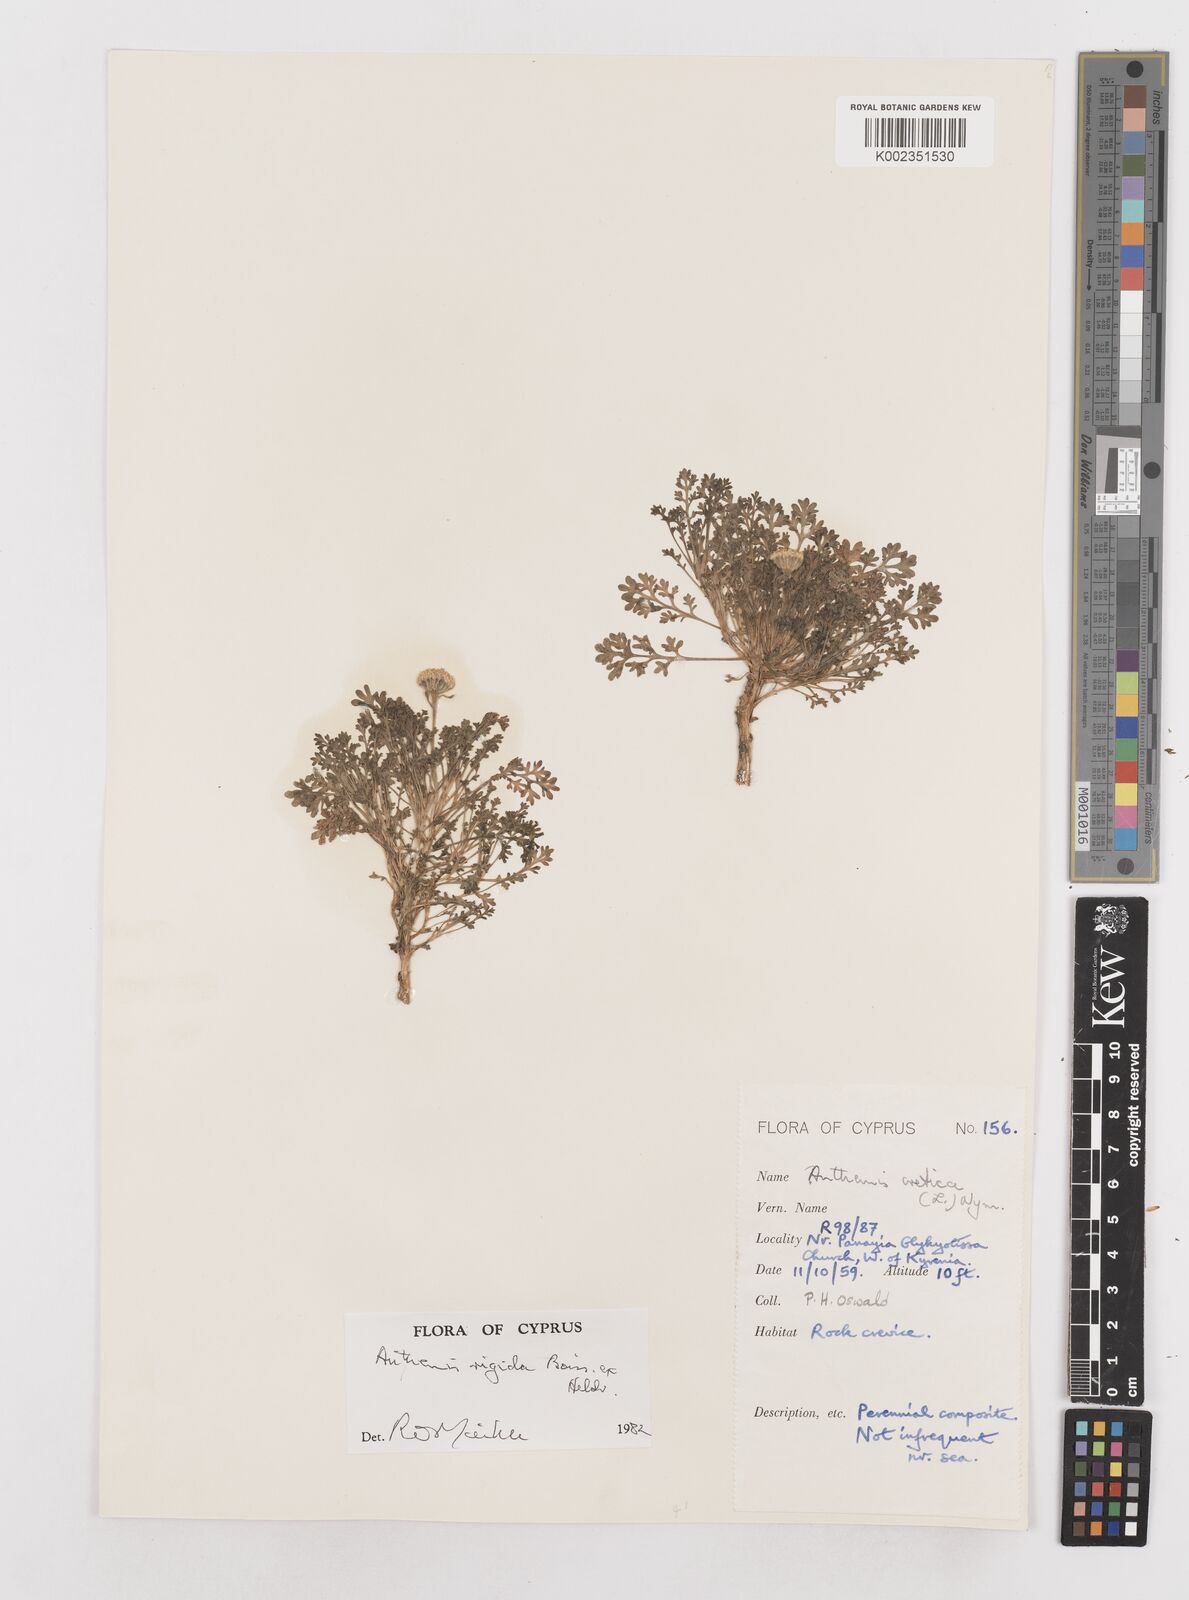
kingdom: Plantae
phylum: Tracheophyta
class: Magnoliopsida
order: Asterales
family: Asteraceae
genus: Anthemis
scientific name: Anthemis rigida
